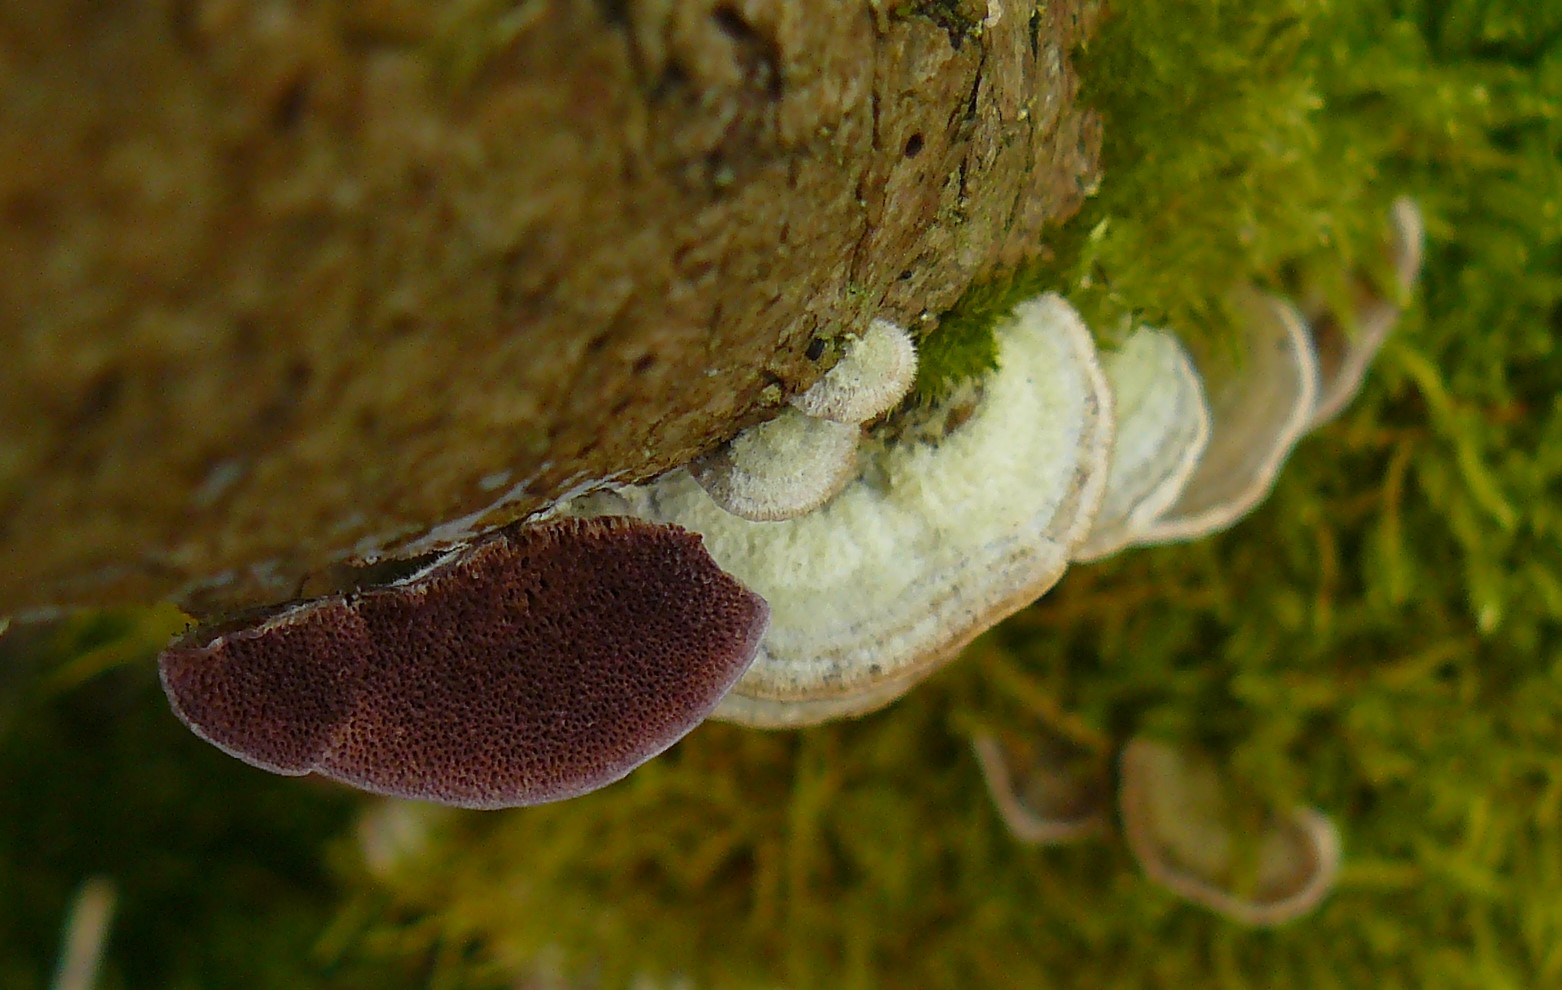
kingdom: Fungi
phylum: Basidiomycota
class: Agaricomycetes
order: Hymenochaetales
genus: Trichaptum
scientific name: Trichaptum abietinum
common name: almindelig violporesvamp
